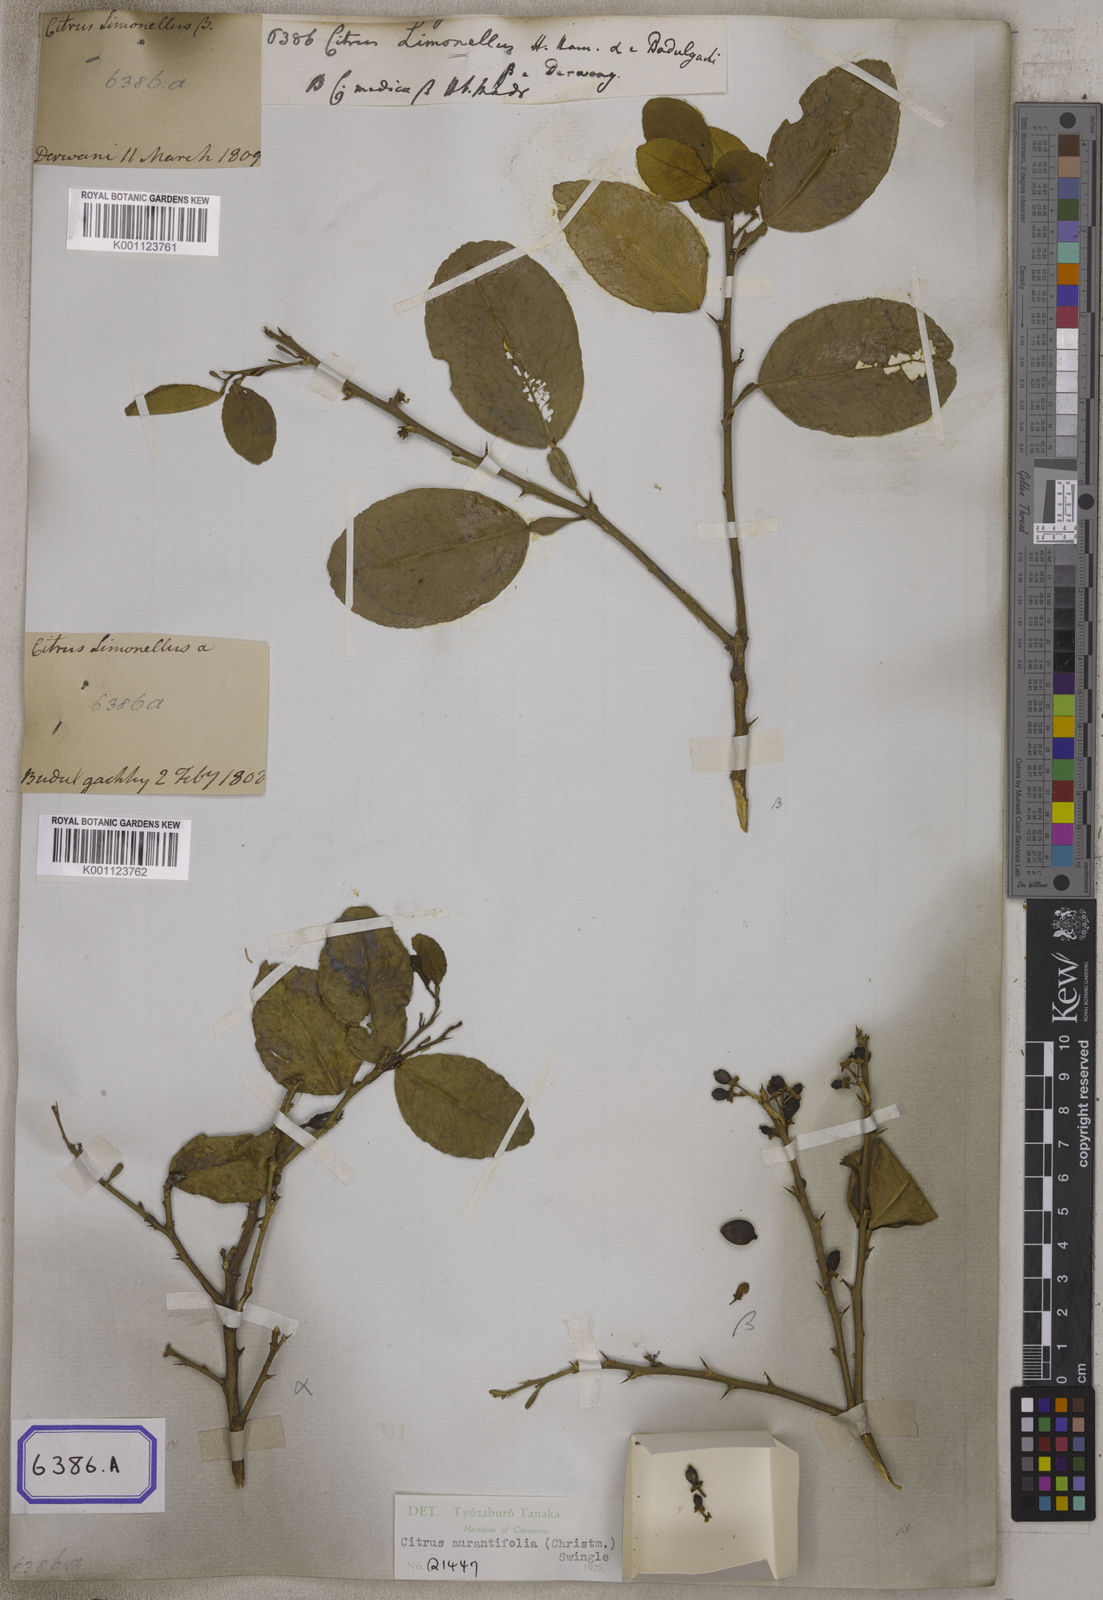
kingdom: Plantae
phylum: Tracheophyta
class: Magnoliopsida
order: Sapindales
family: Rutaceae
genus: Citrus
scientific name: Citrus
